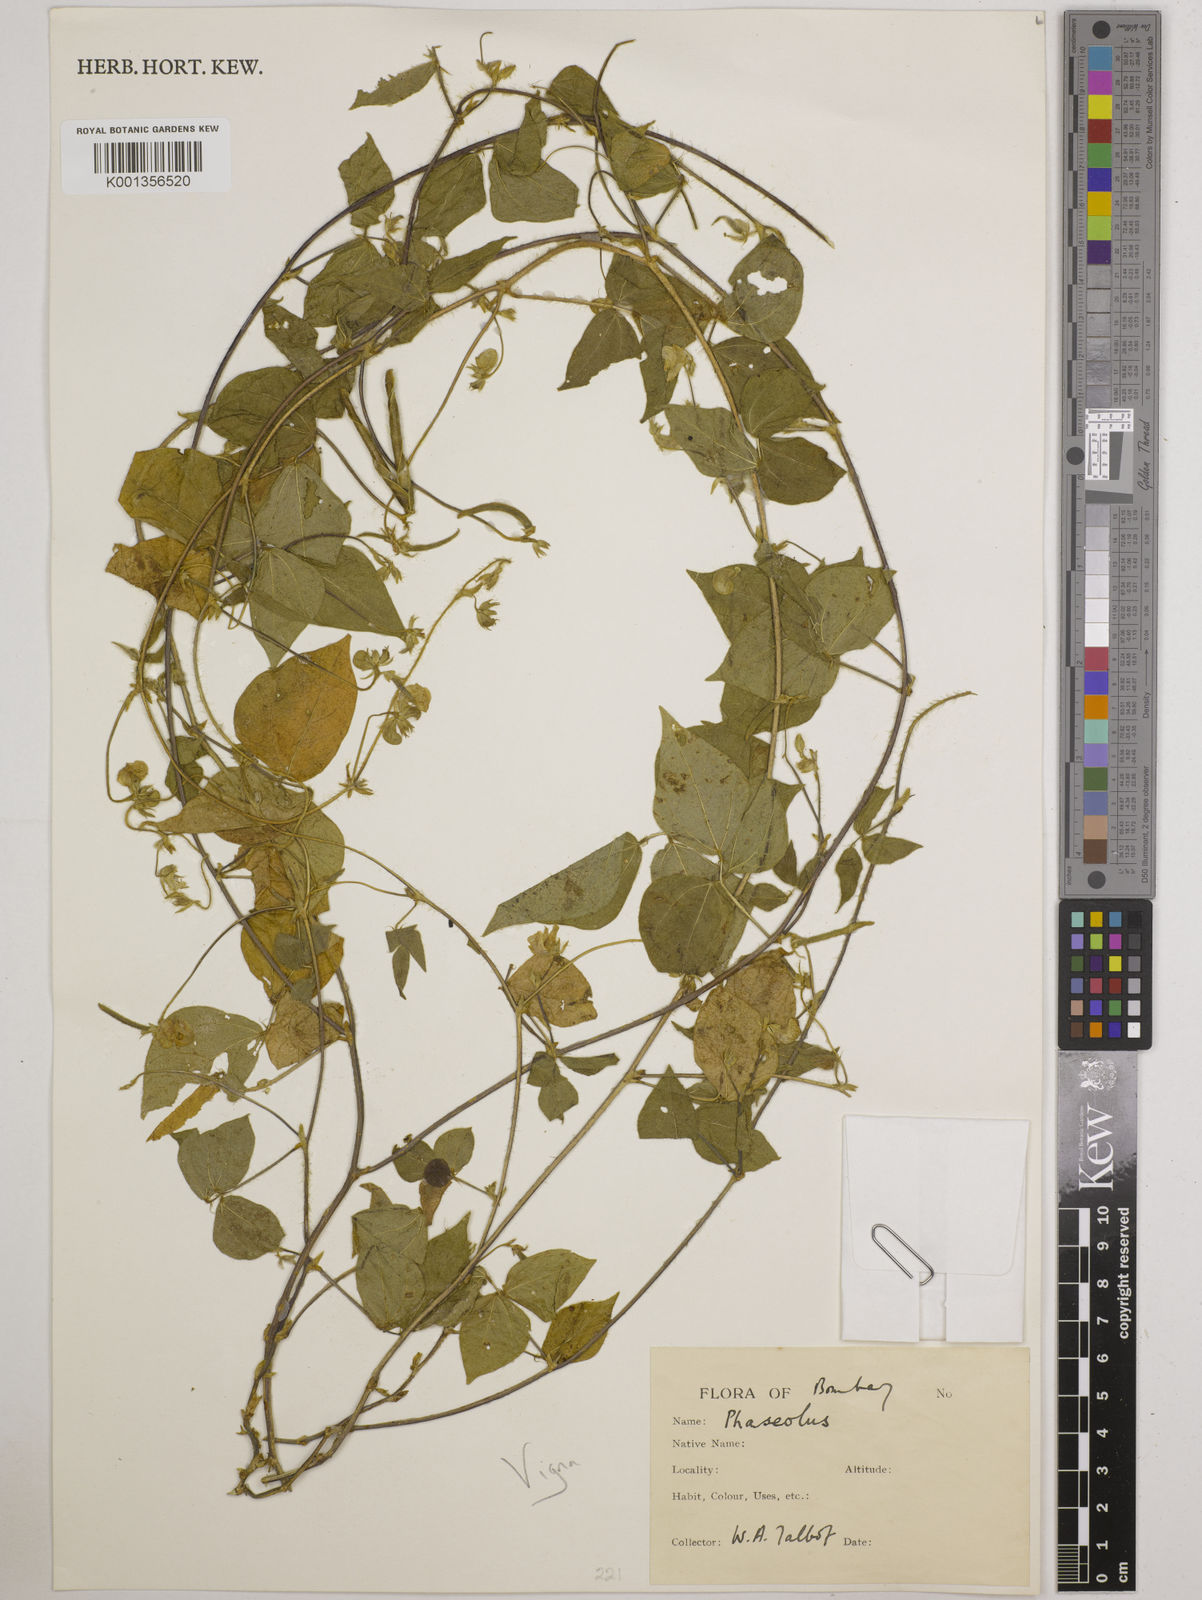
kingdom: Plantae
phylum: Tracheophyta
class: Magnoliopsida
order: Fabales
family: Fabaceae
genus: Vigna
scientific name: Vigna
